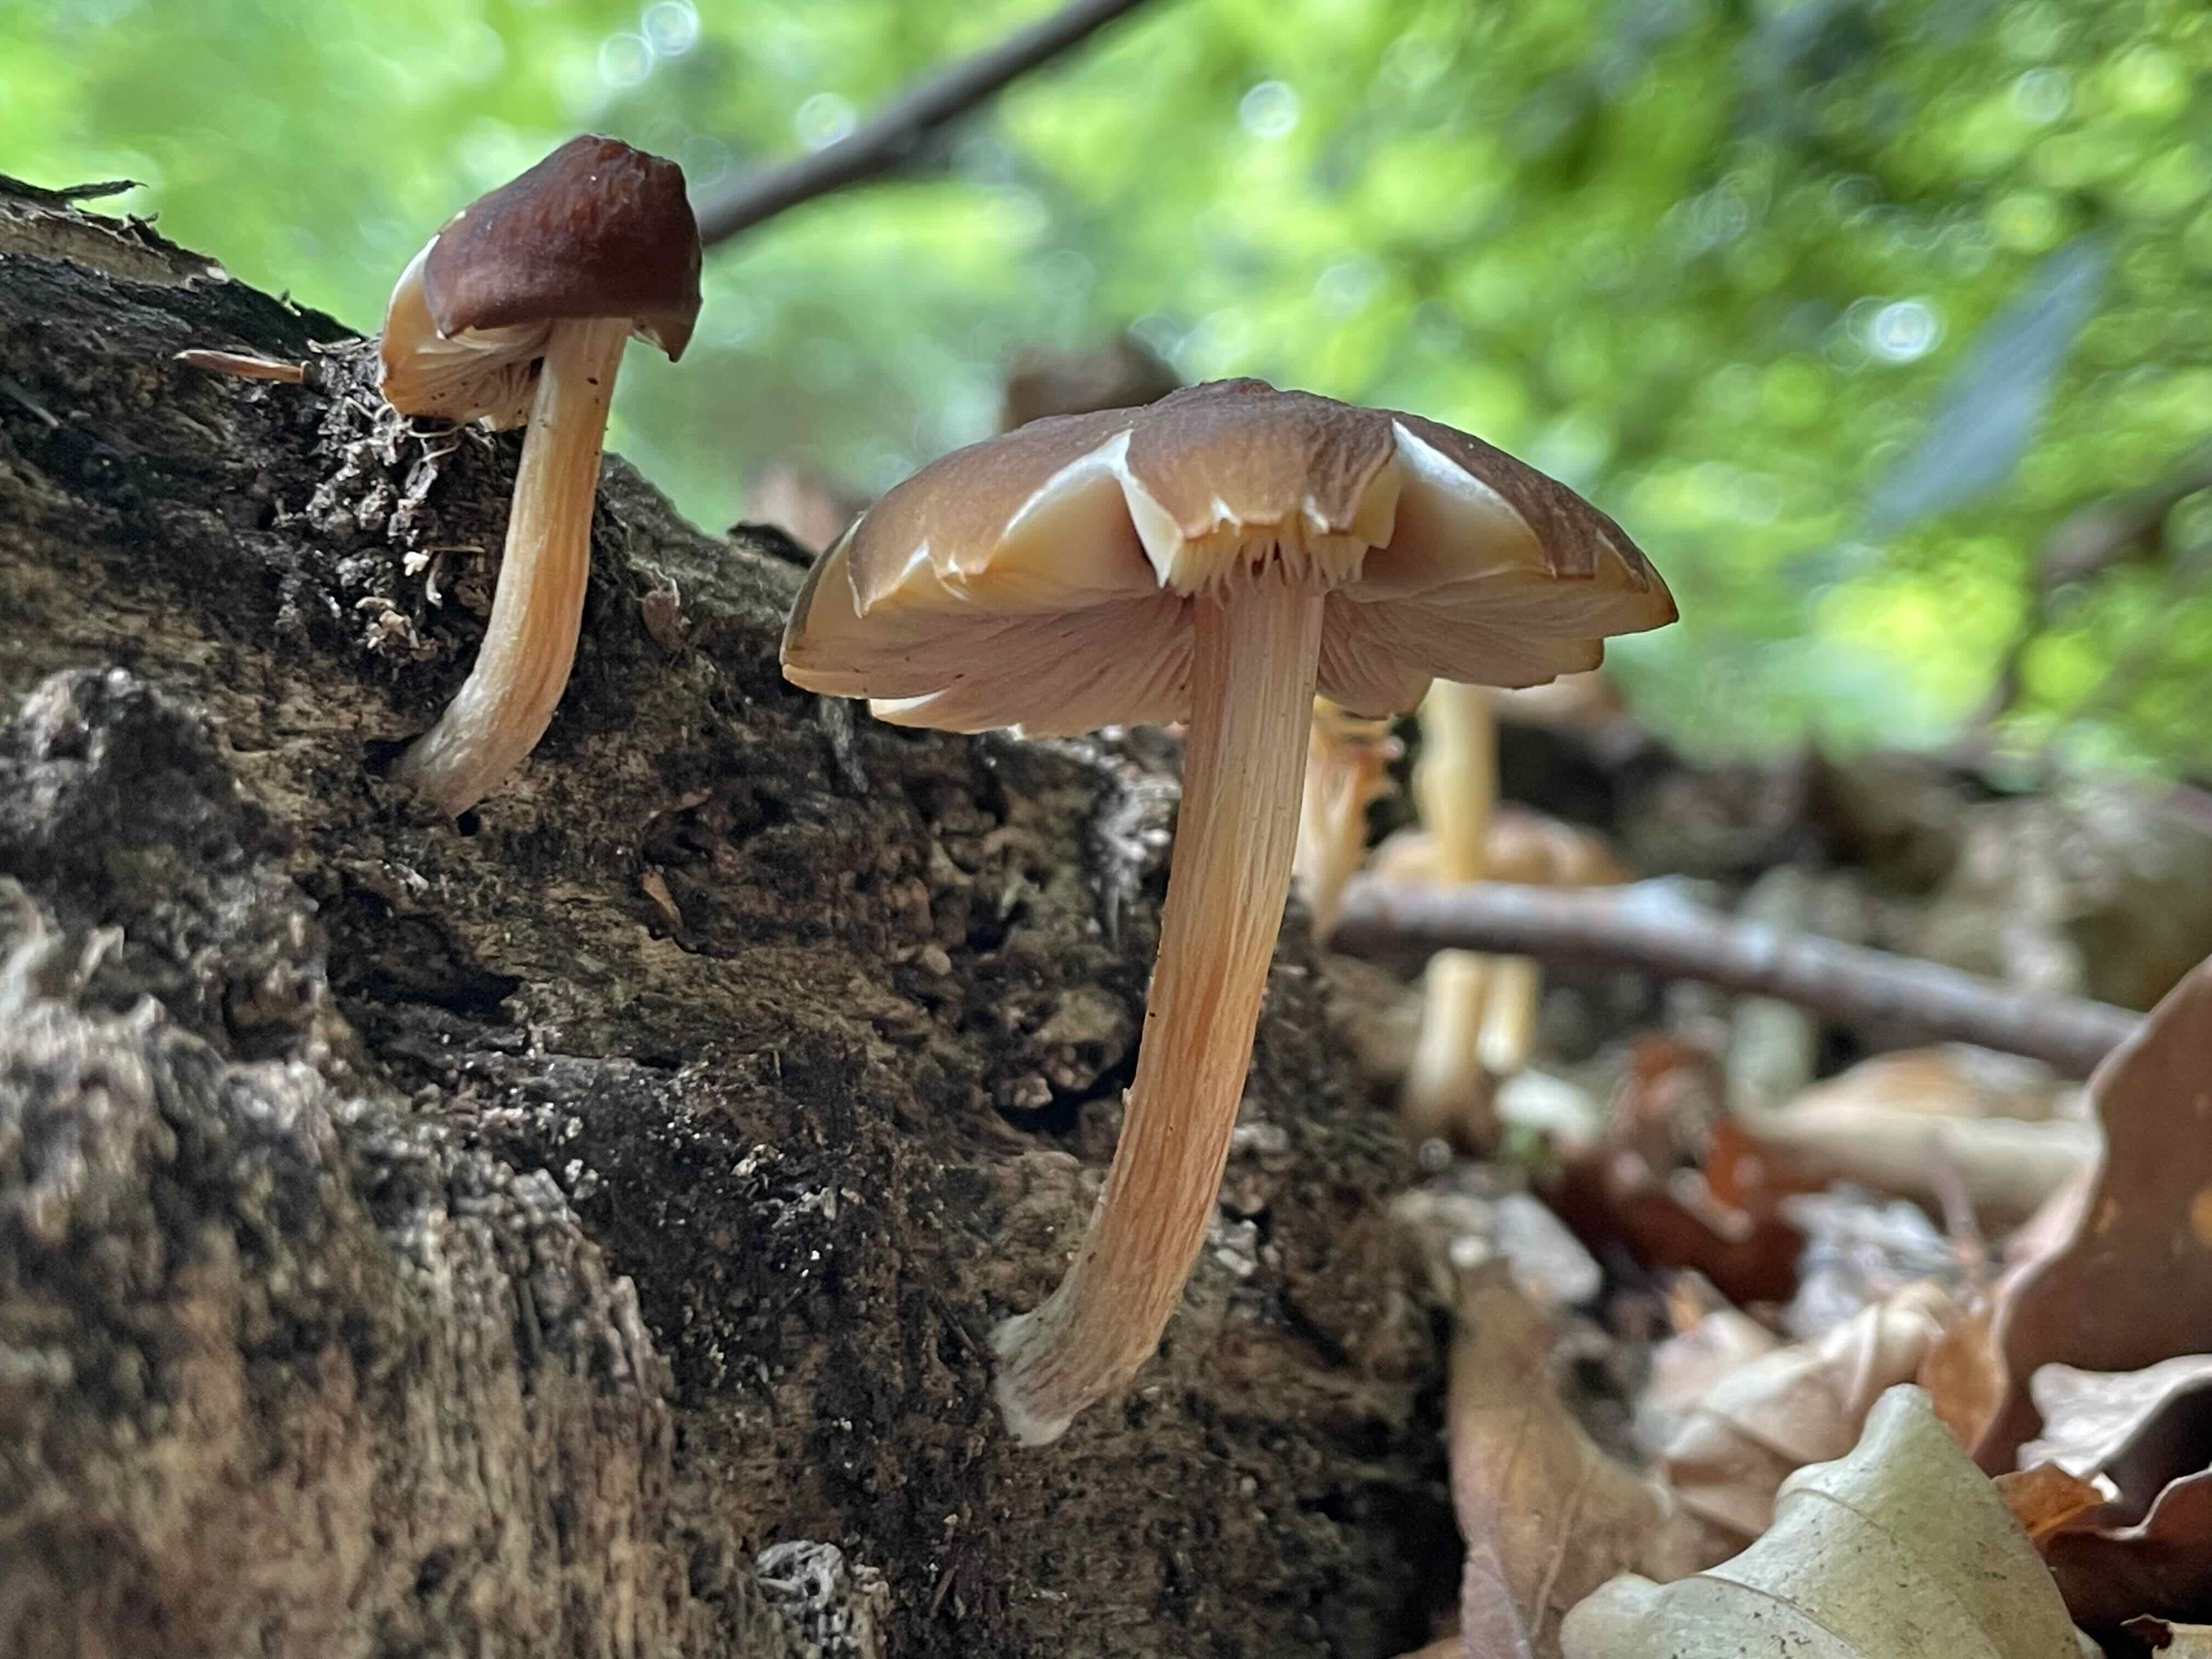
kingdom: Fungi
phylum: Basidiomycota
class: Agaricomycetes
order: Agaricales
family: Pluteaceae
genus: Pluteus
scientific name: Pluteus phlebophorus
